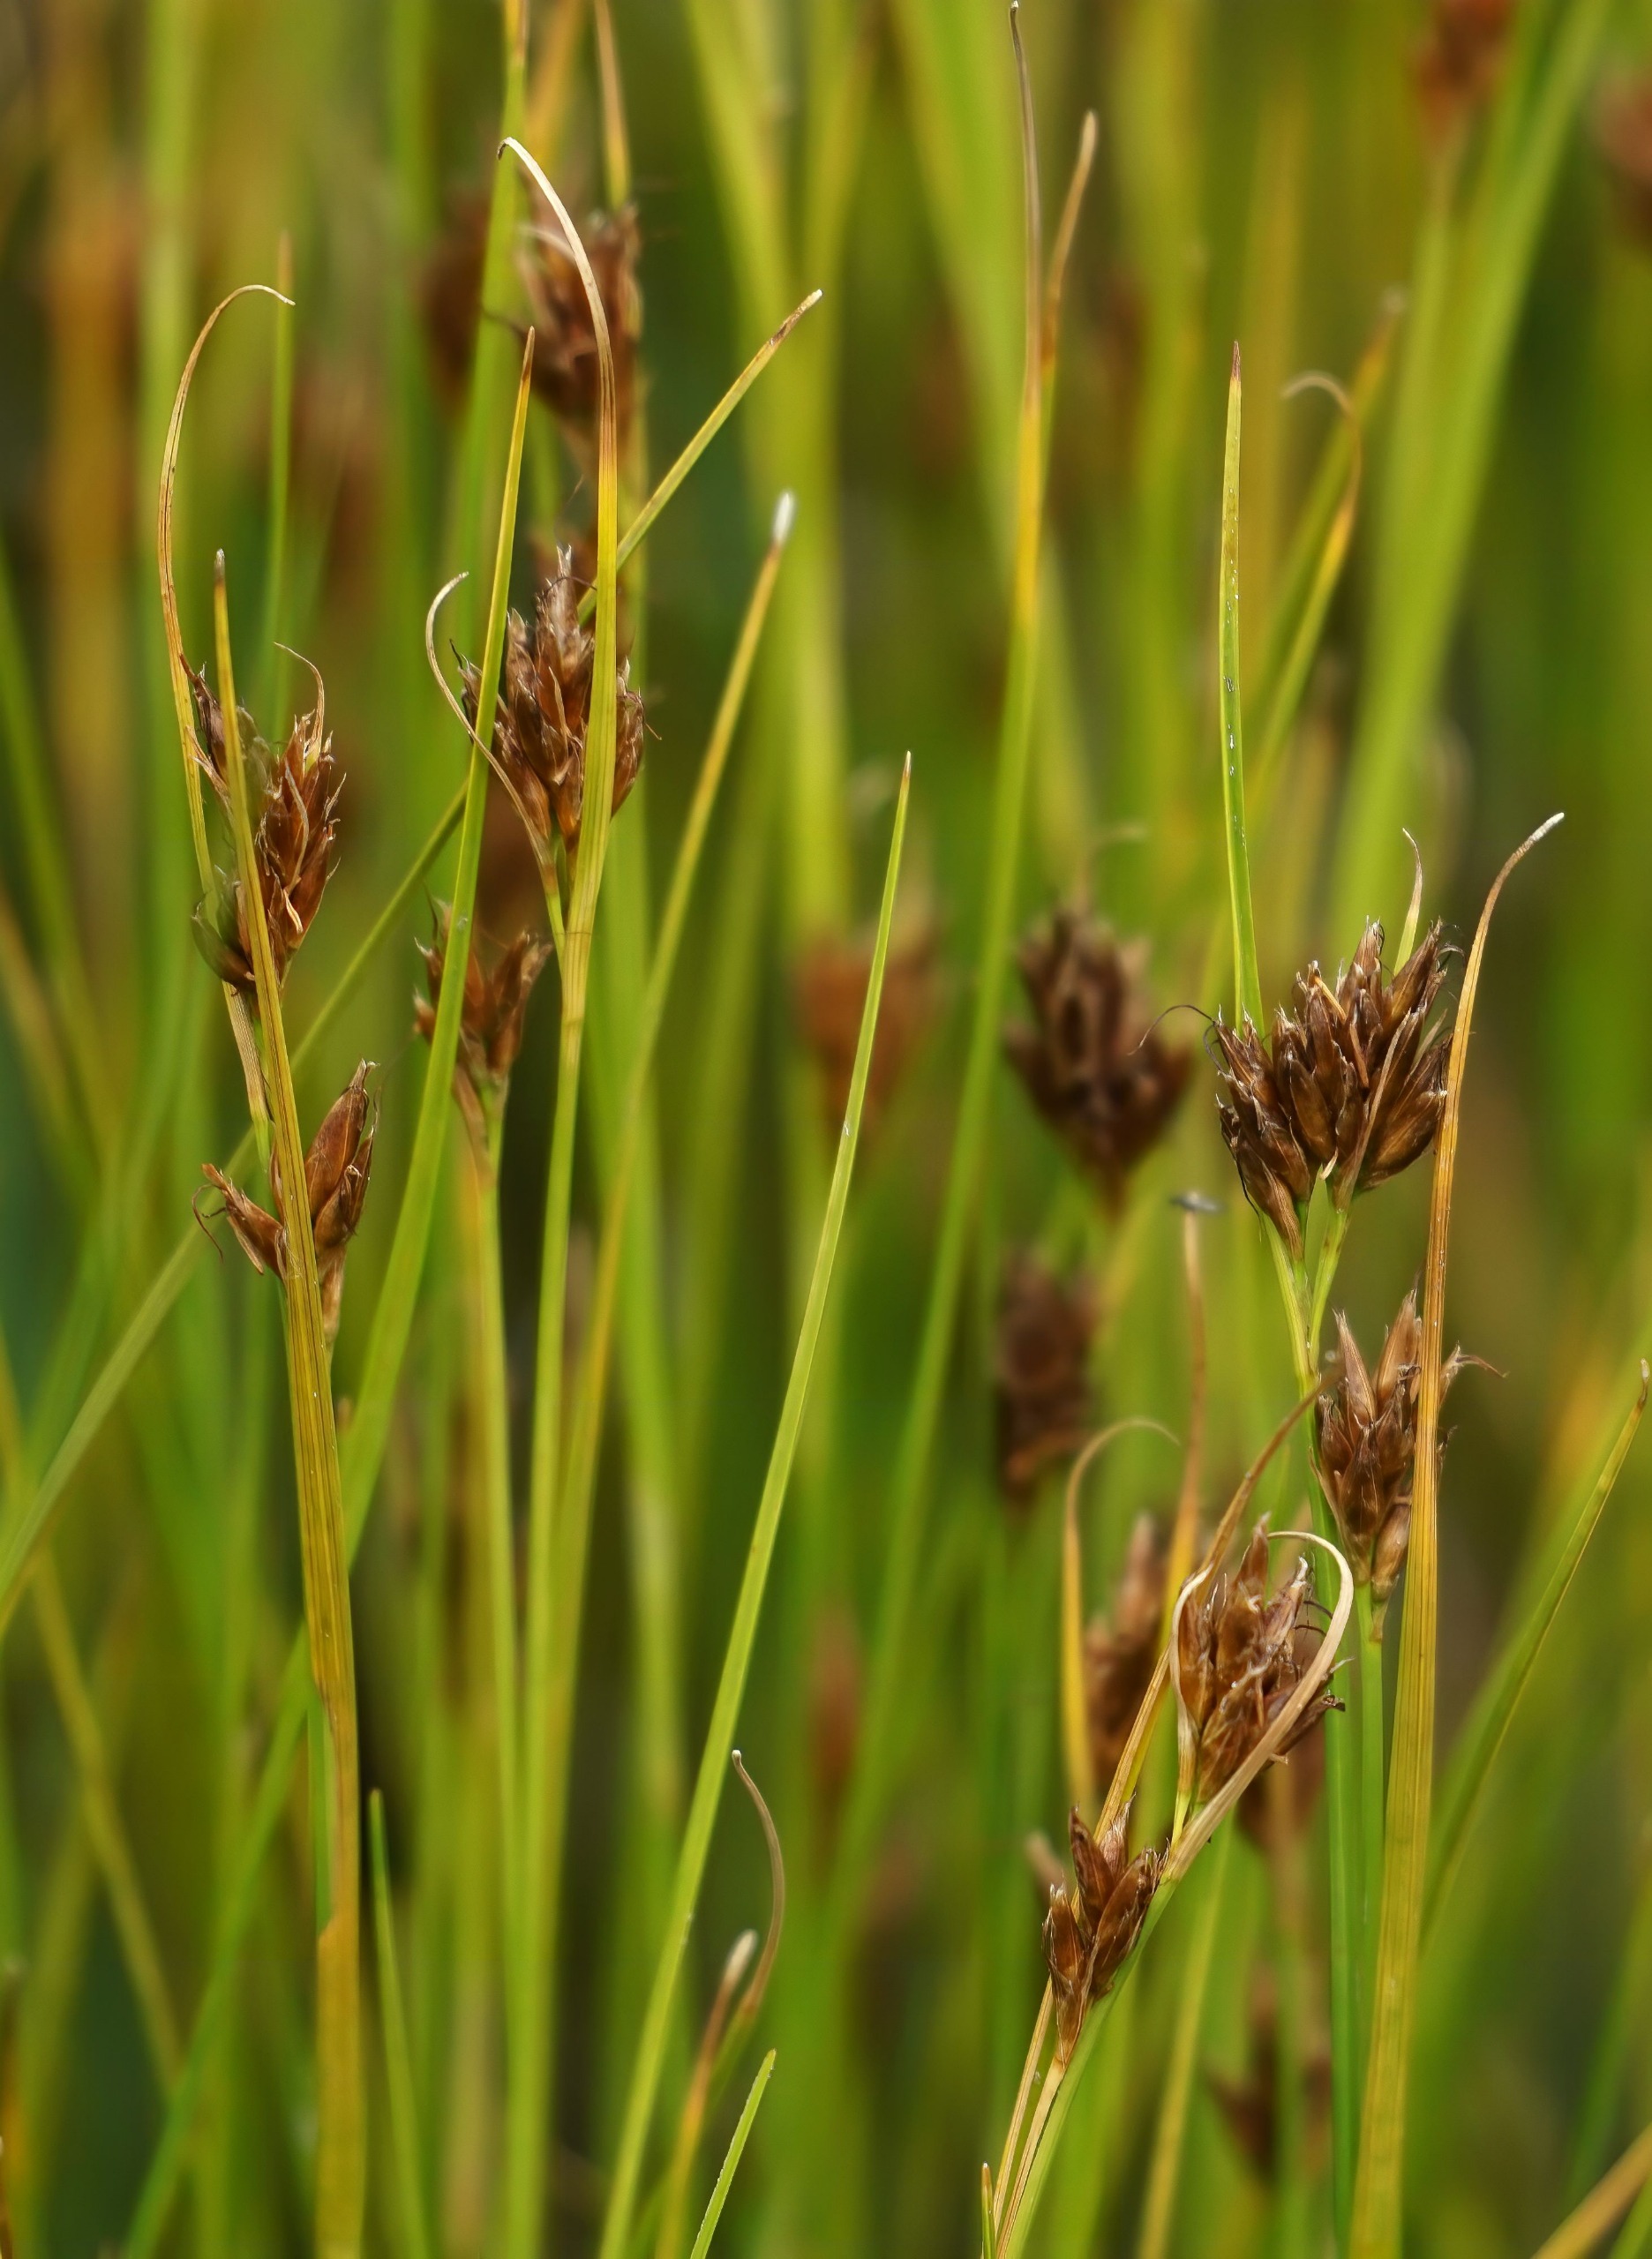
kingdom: Plantae
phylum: Tracheophyta
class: Liliopsida
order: Poales
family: Cyperaceae
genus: Rhynchospora
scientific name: Rhynchospora fusca
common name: Brun næbfrø
